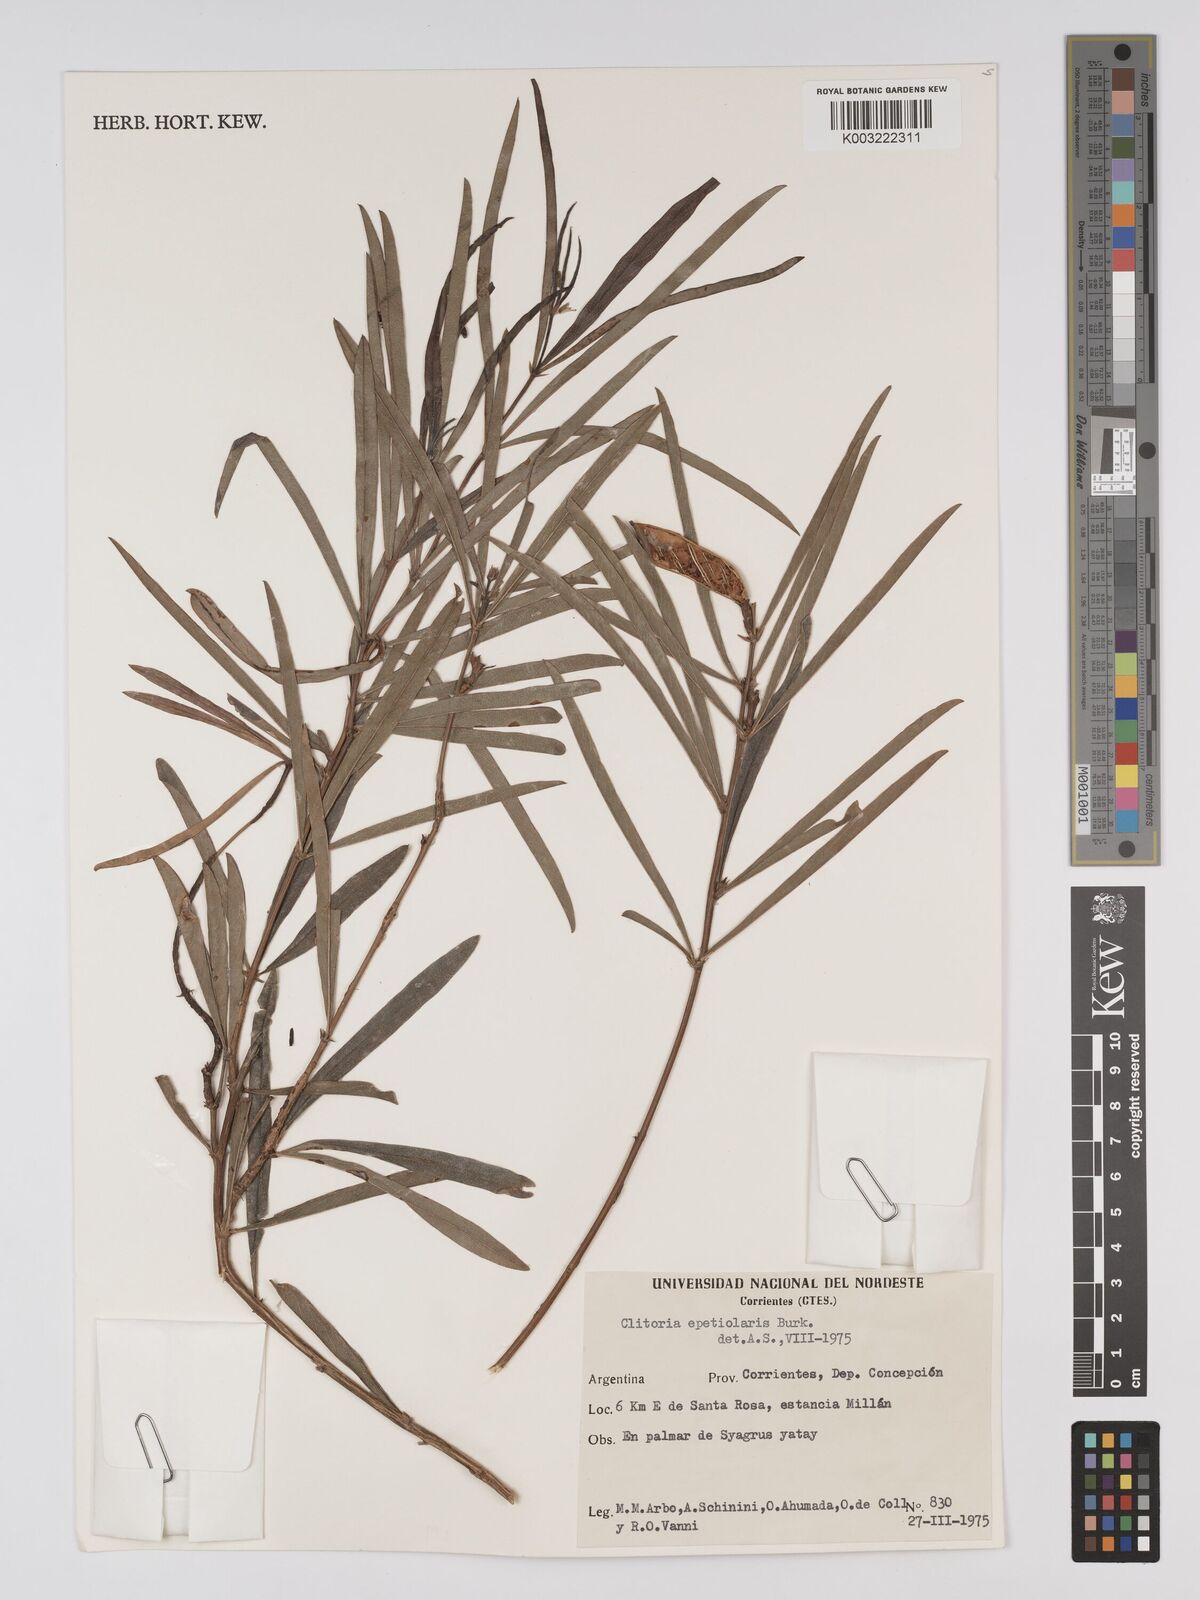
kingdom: Plantae
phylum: Tracheophyta
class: Magnoliopsida
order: Fabales
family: Fabaceae
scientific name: Fabaceae
